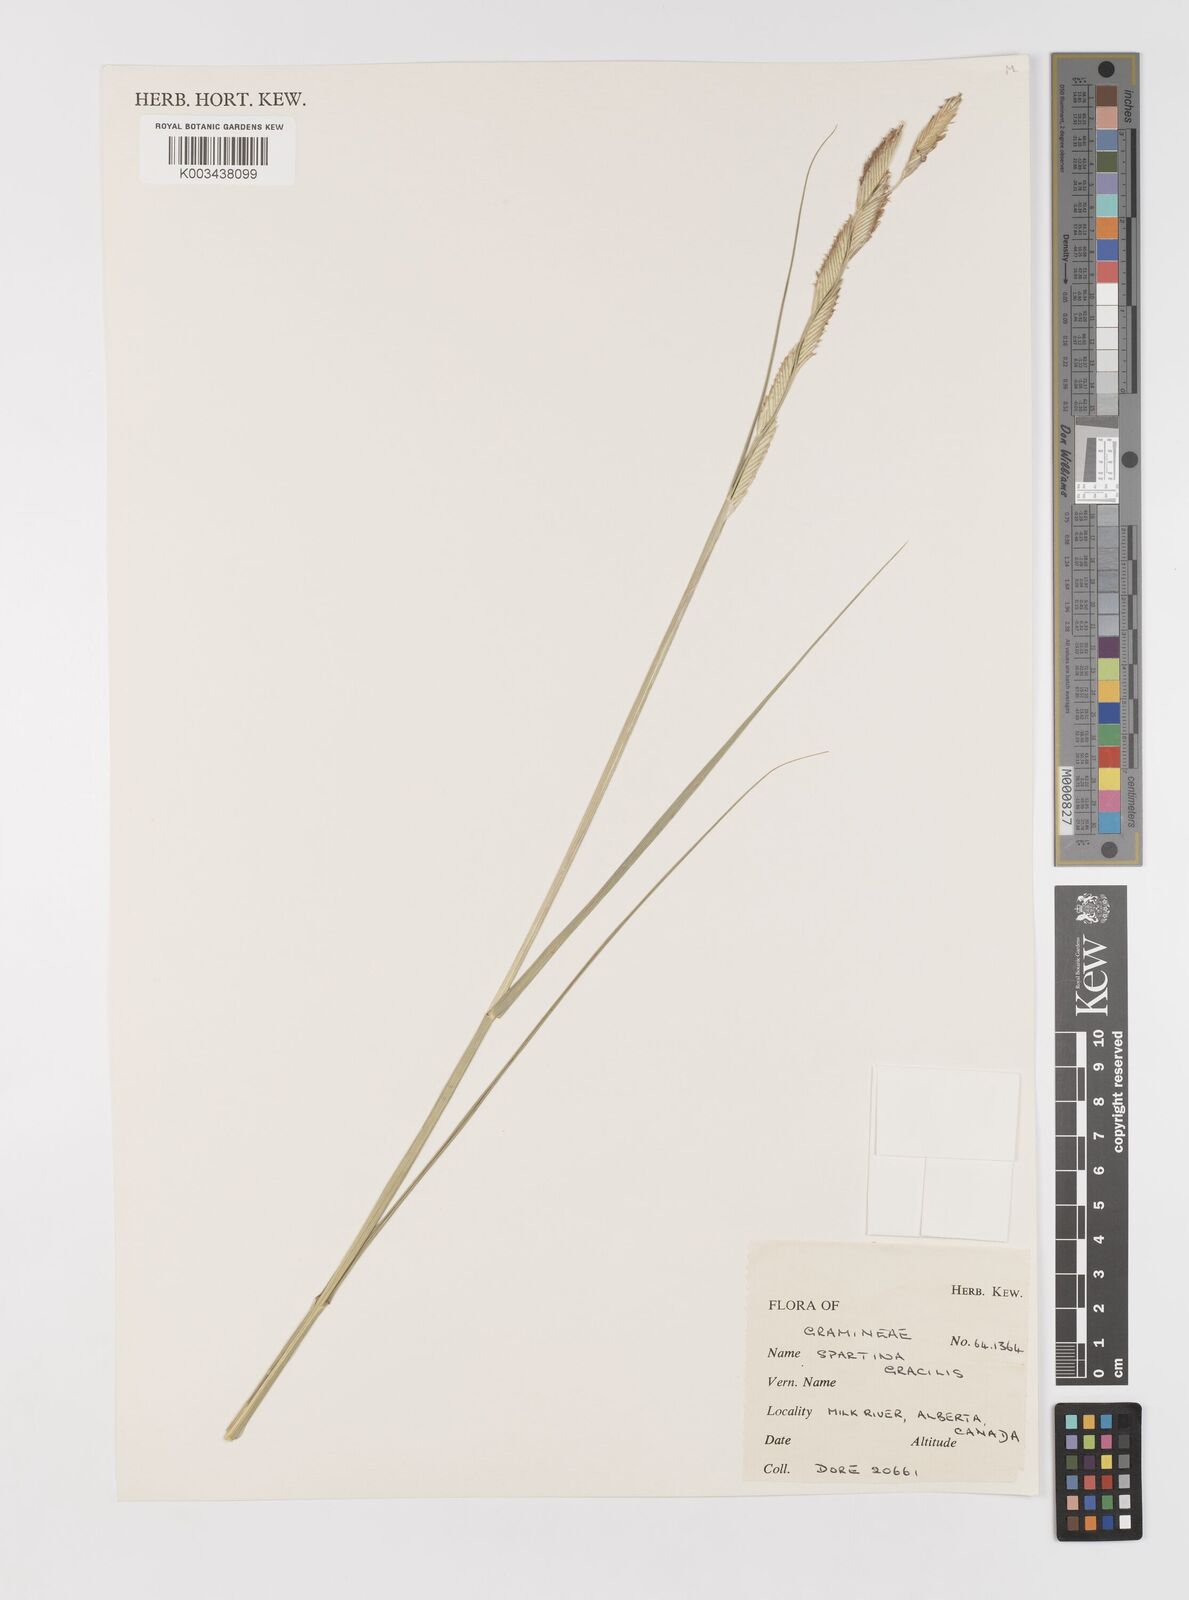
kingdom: Plantae
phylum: Tracheophyta
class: Liliopsida
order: Poales
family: Poaceae
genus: Sporobolus
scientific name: Sporobolus hookerianus
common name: Alkali cordgrass
